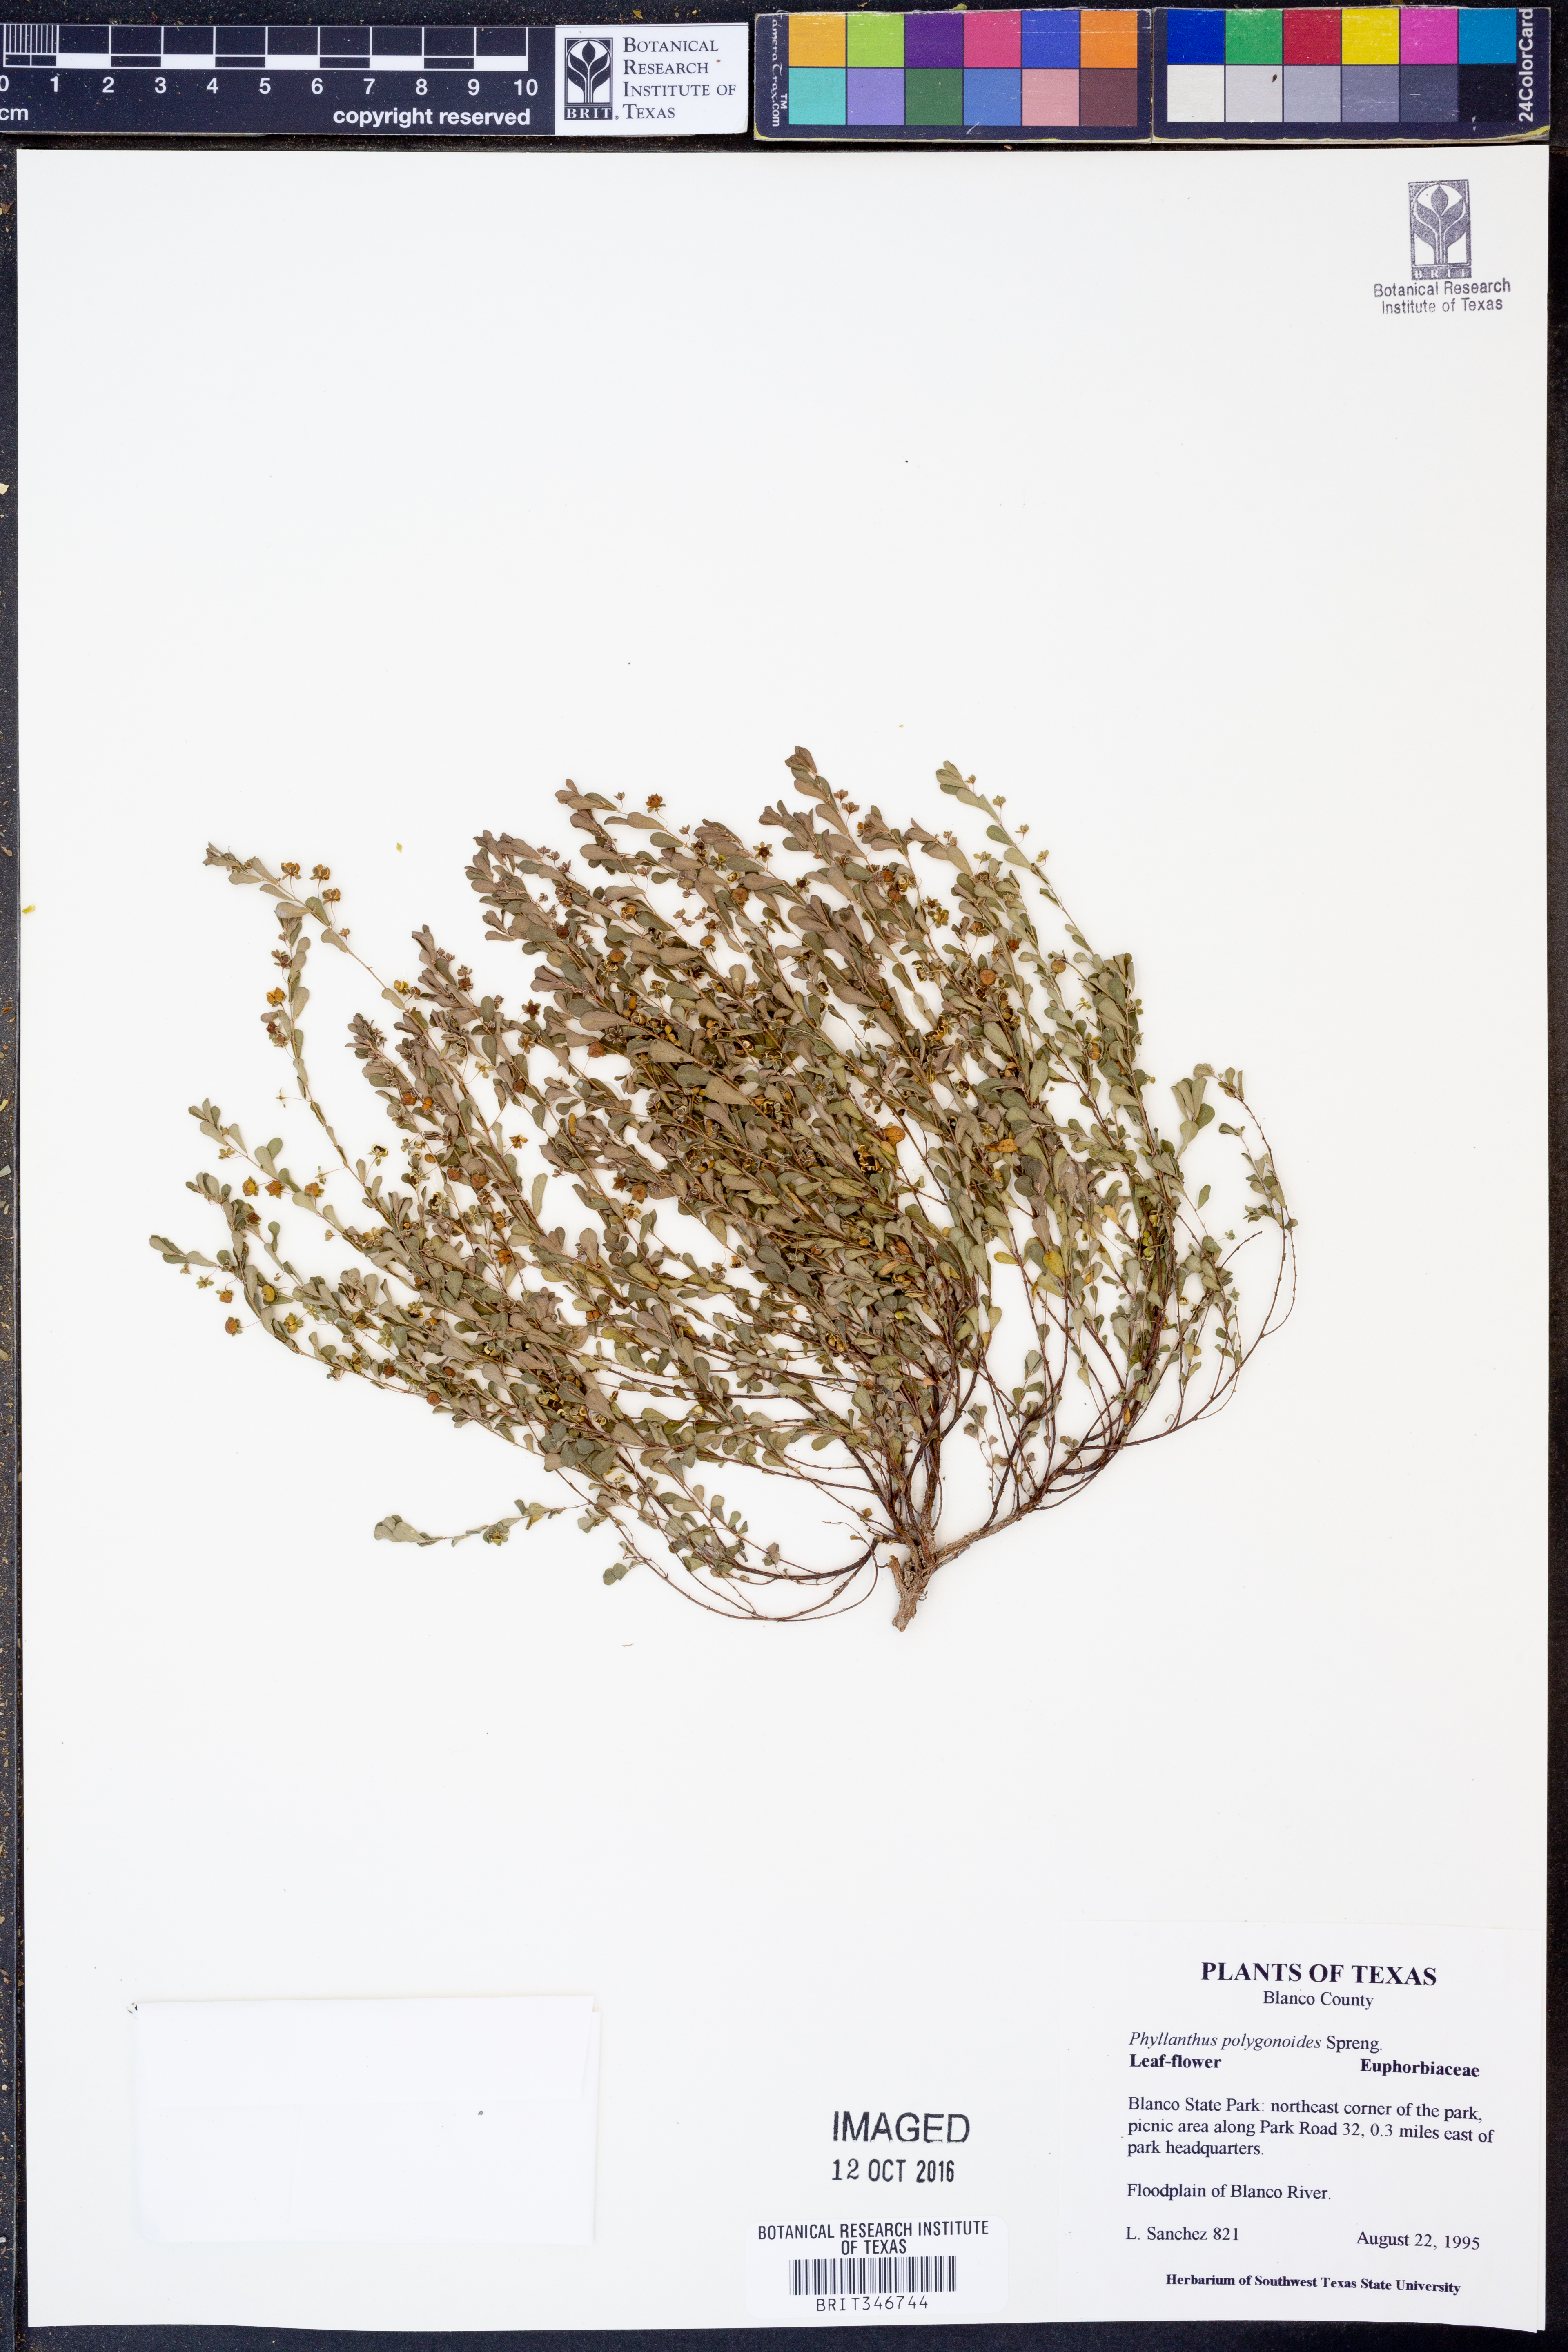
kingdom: Plantae
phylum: Tracheophyta
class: Magnoliopsida
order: Malpighiales
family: Phyllanthaceae
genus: Phyllanthus
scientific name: Phyllanthus polygonoides
